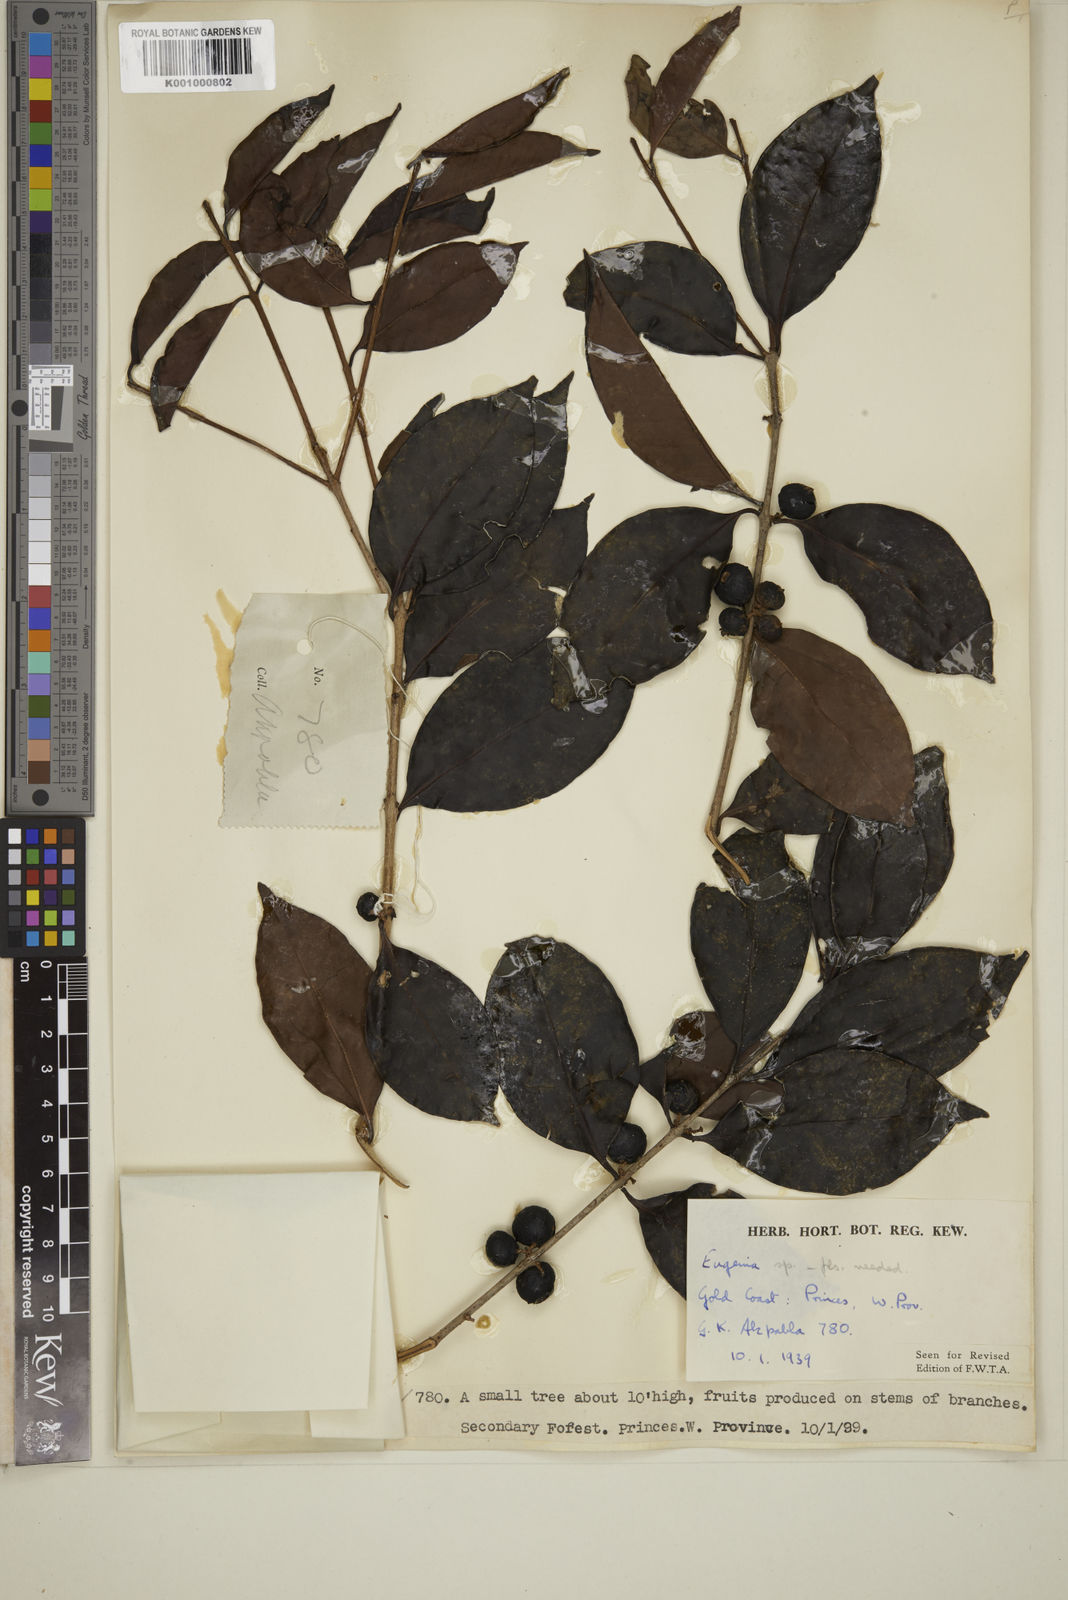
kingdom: Plantae
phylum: Tracheophyta
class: Magnoliopsida
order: Myrtales
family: Myrtaceae
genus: Eugenia
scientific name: Eugenia
